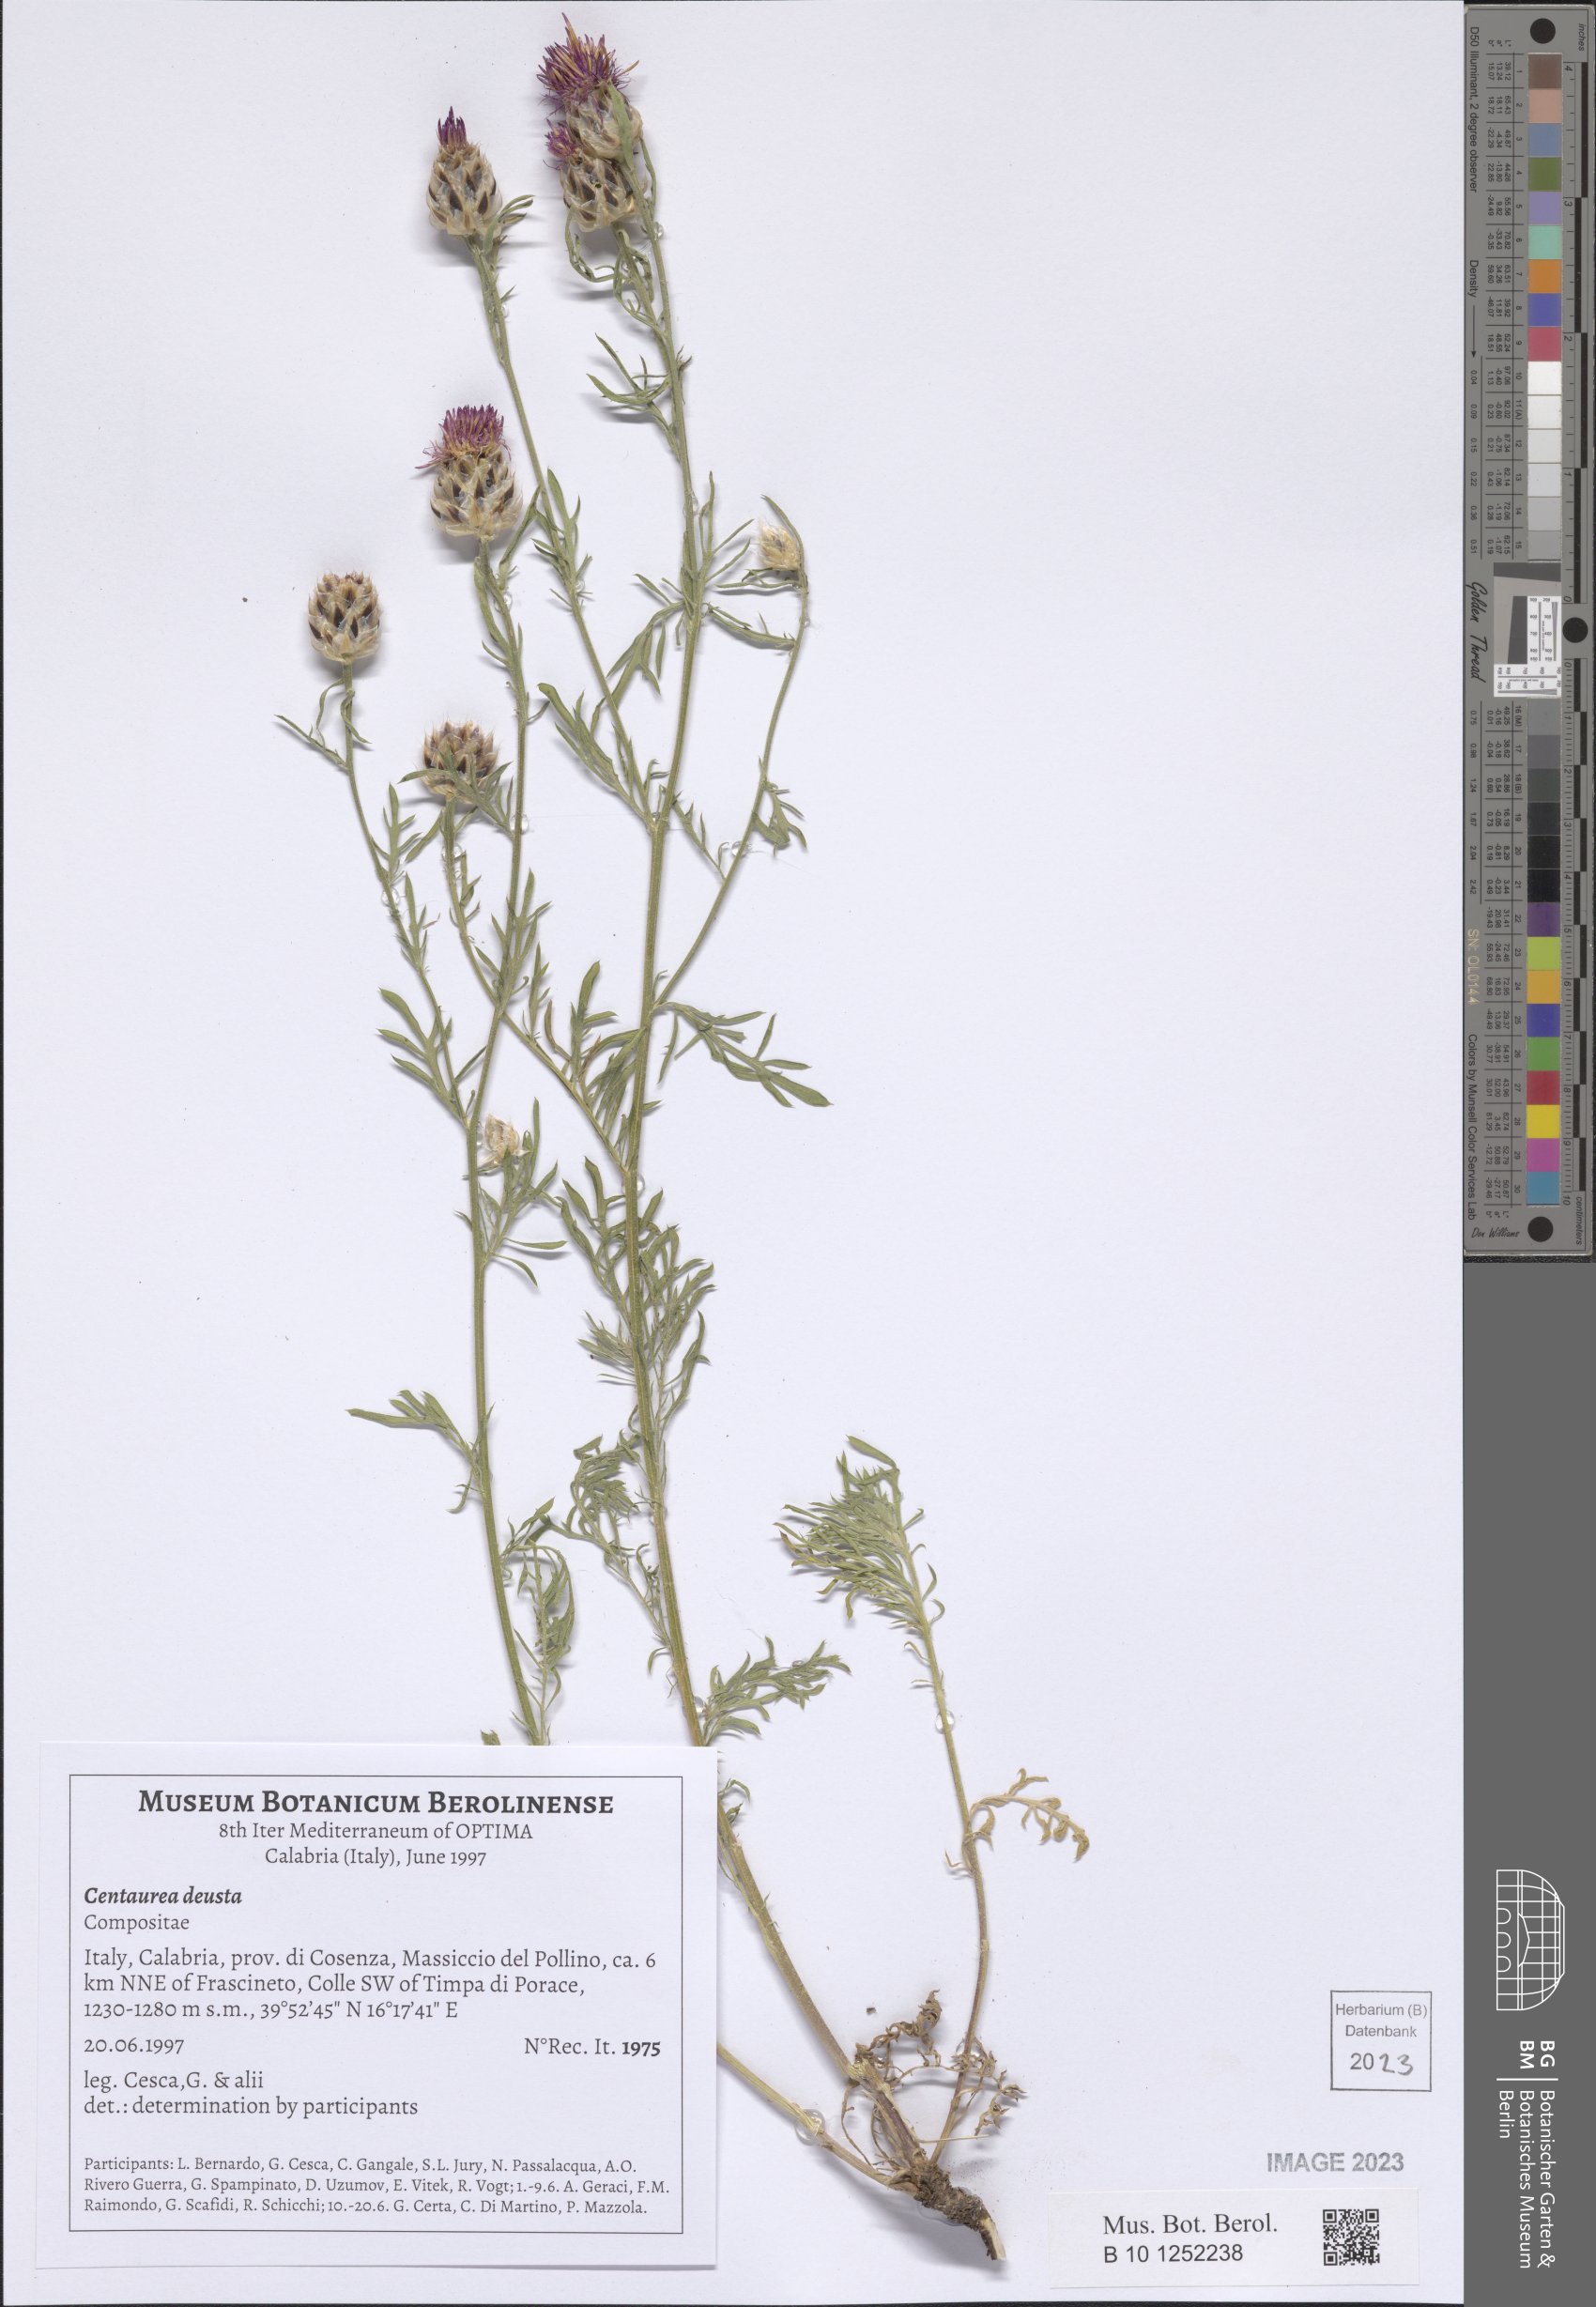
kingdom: Plantae
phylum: Tracheophyta
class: Magnoliopsida
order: Asterales
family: Asteraceae
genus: Centaurea
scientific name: Centaurea deusta
